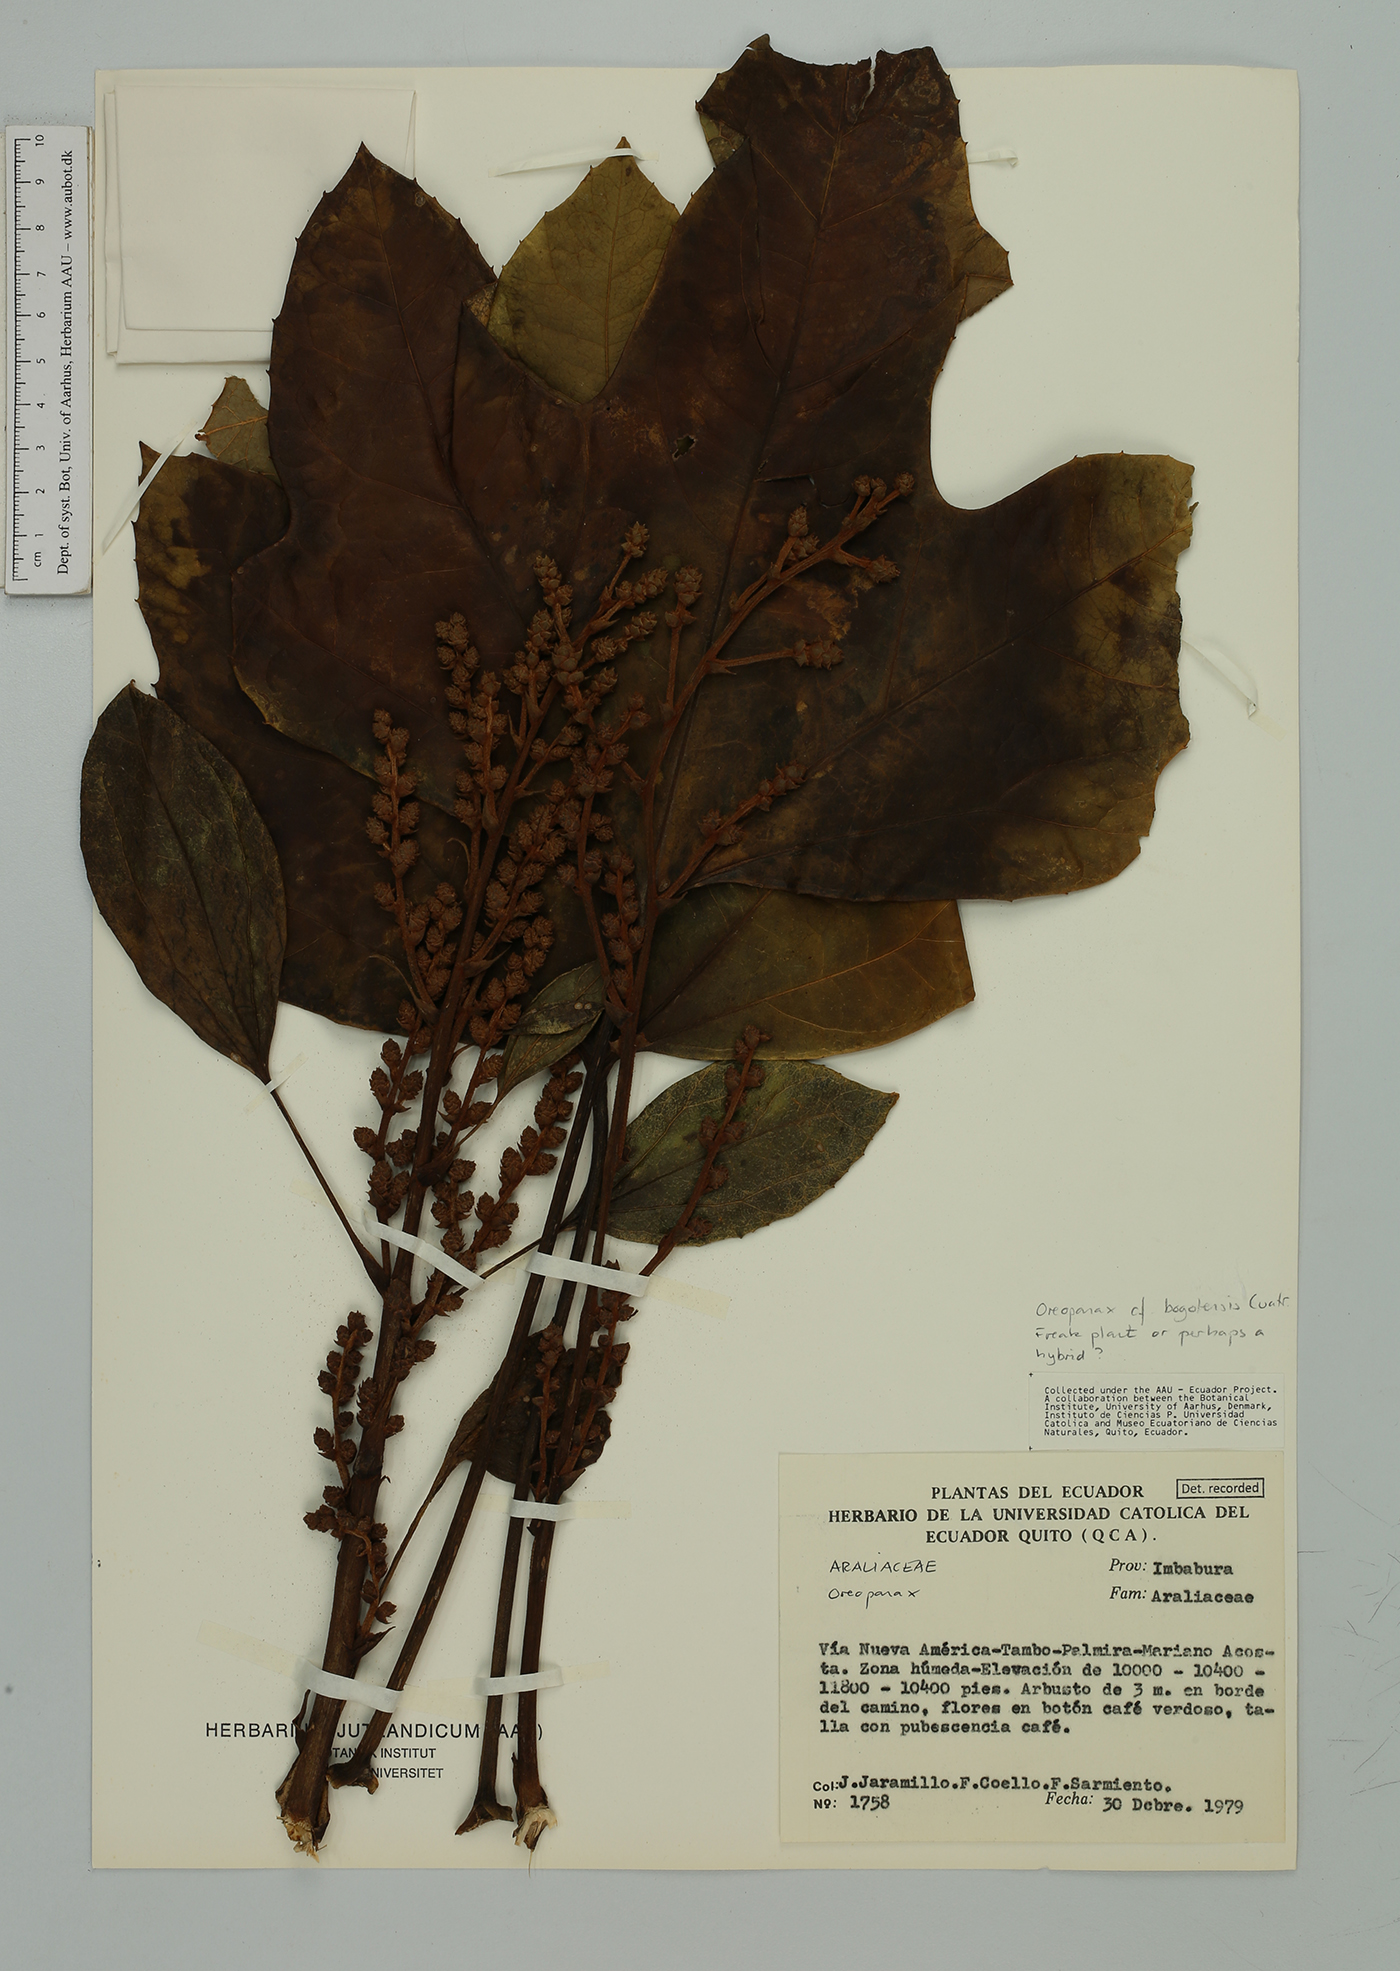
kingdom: Plantae
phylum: Tracheophyta
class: Magnoliopsida
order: Apiales
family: Araliaceae
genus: Oreopanax
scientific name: Oreopanax
